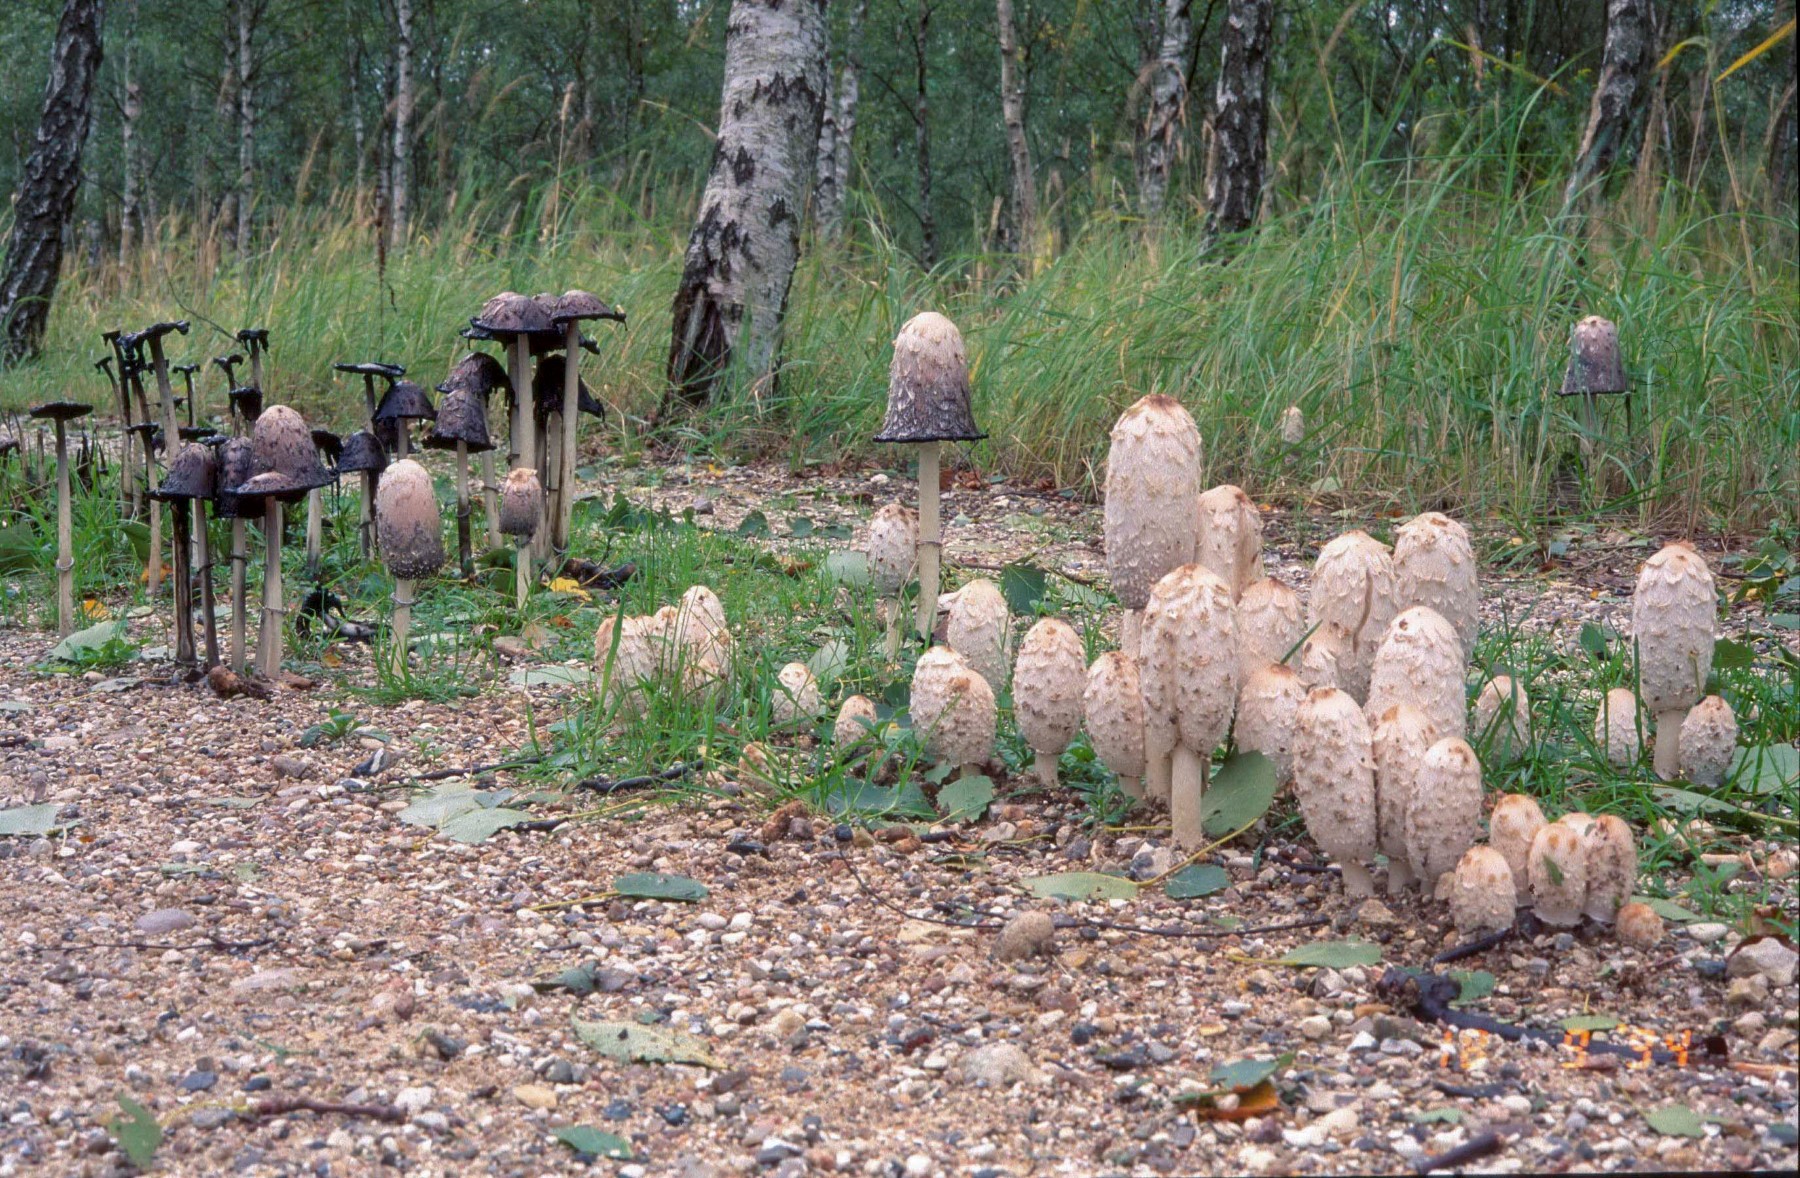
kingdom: Fungi
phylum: Basidiomycota
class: Agaricomycetes
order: Agaricales
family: Agaricaceae
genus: Coprinus
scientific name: Coprinus comatus
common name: stor parykhat
